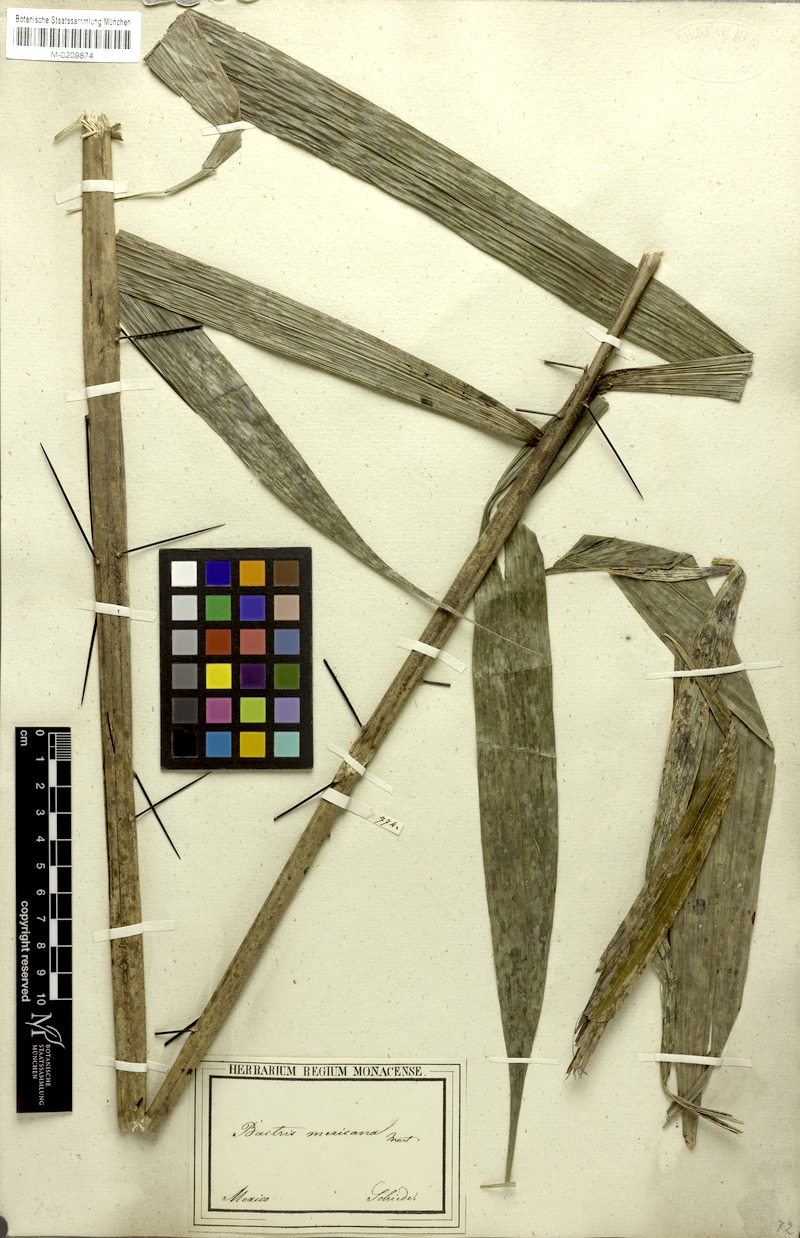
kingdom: Plantae
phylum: Tracheophyta
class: Liliopsida
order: Arecales
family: Arecaceae
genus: Bactris
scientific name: Bactris mexicana
